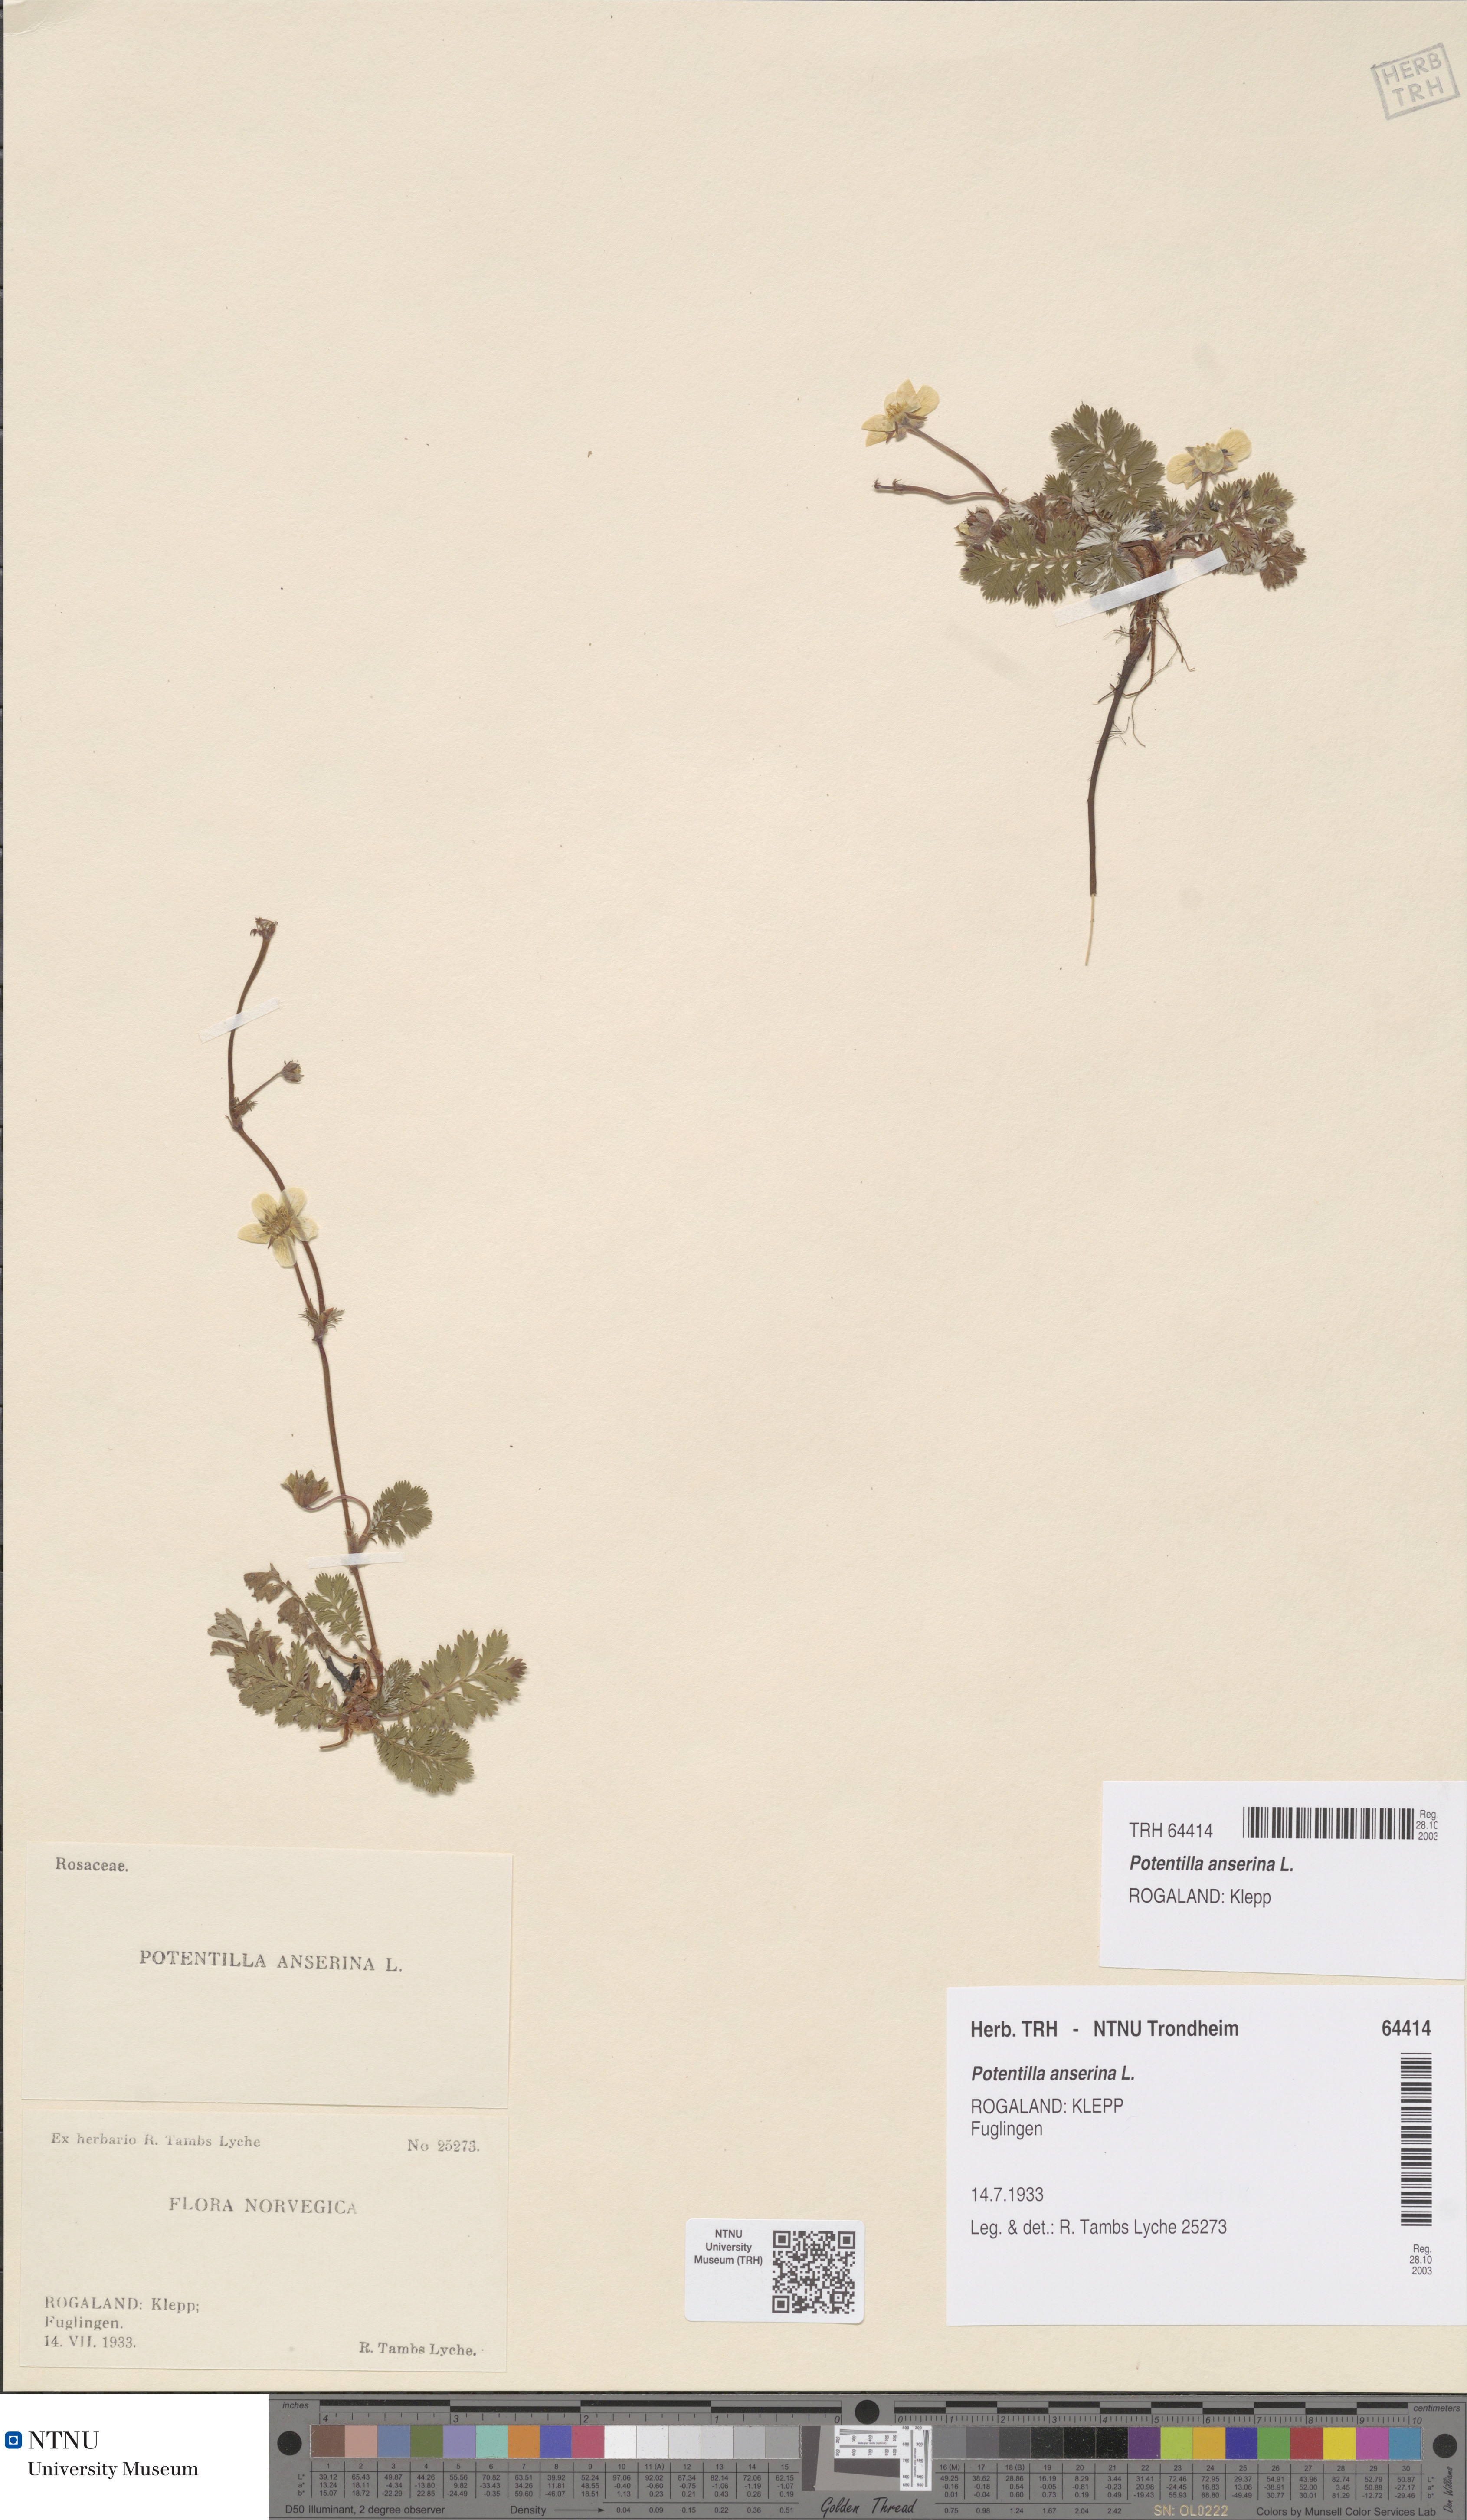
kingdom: Plantae
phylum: Tracheophyta
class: Magnoliopsida
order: Rosales
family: Rosaceae
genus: Argentina
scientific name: Argentina anserina
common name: Common silverweed
